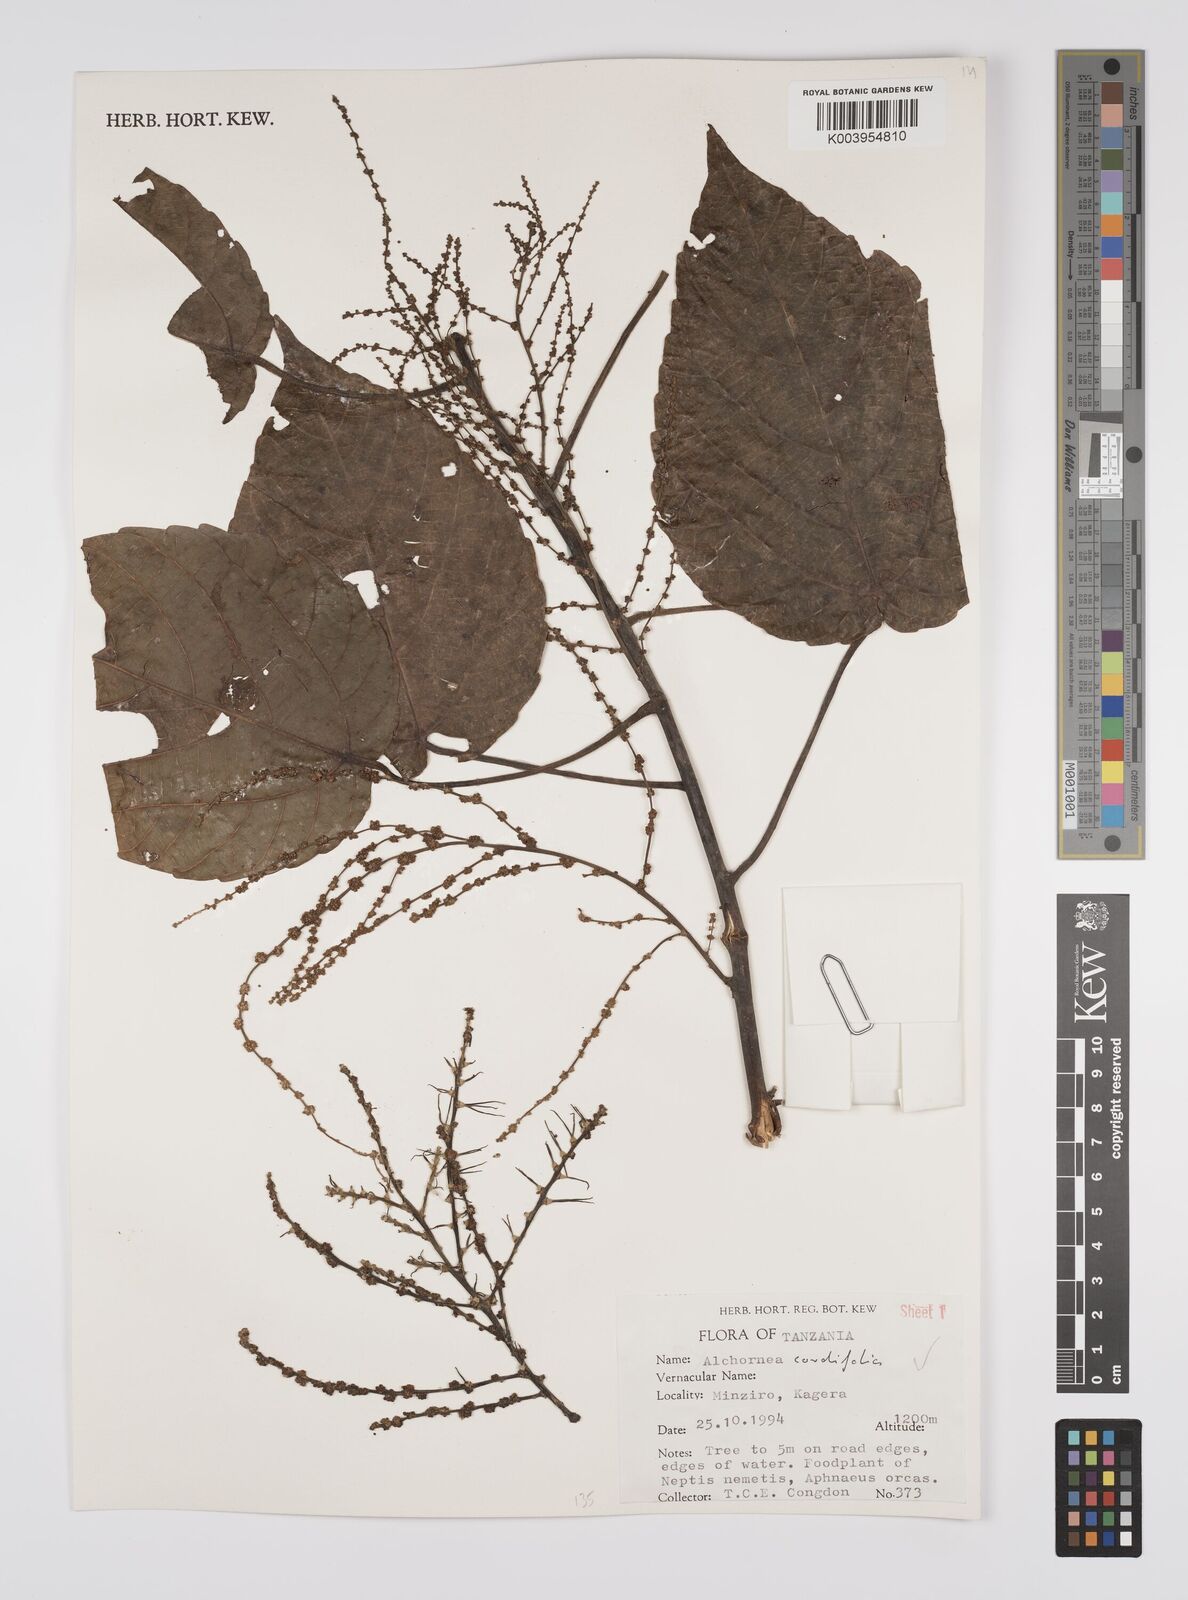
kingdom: Plantae
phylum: Tracheophyta
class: Magnoliopsida
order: Malpighiales
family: Euphorbiaceae
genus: Alchornea
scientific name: Alchornea cordifolia
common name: Christmasbush
